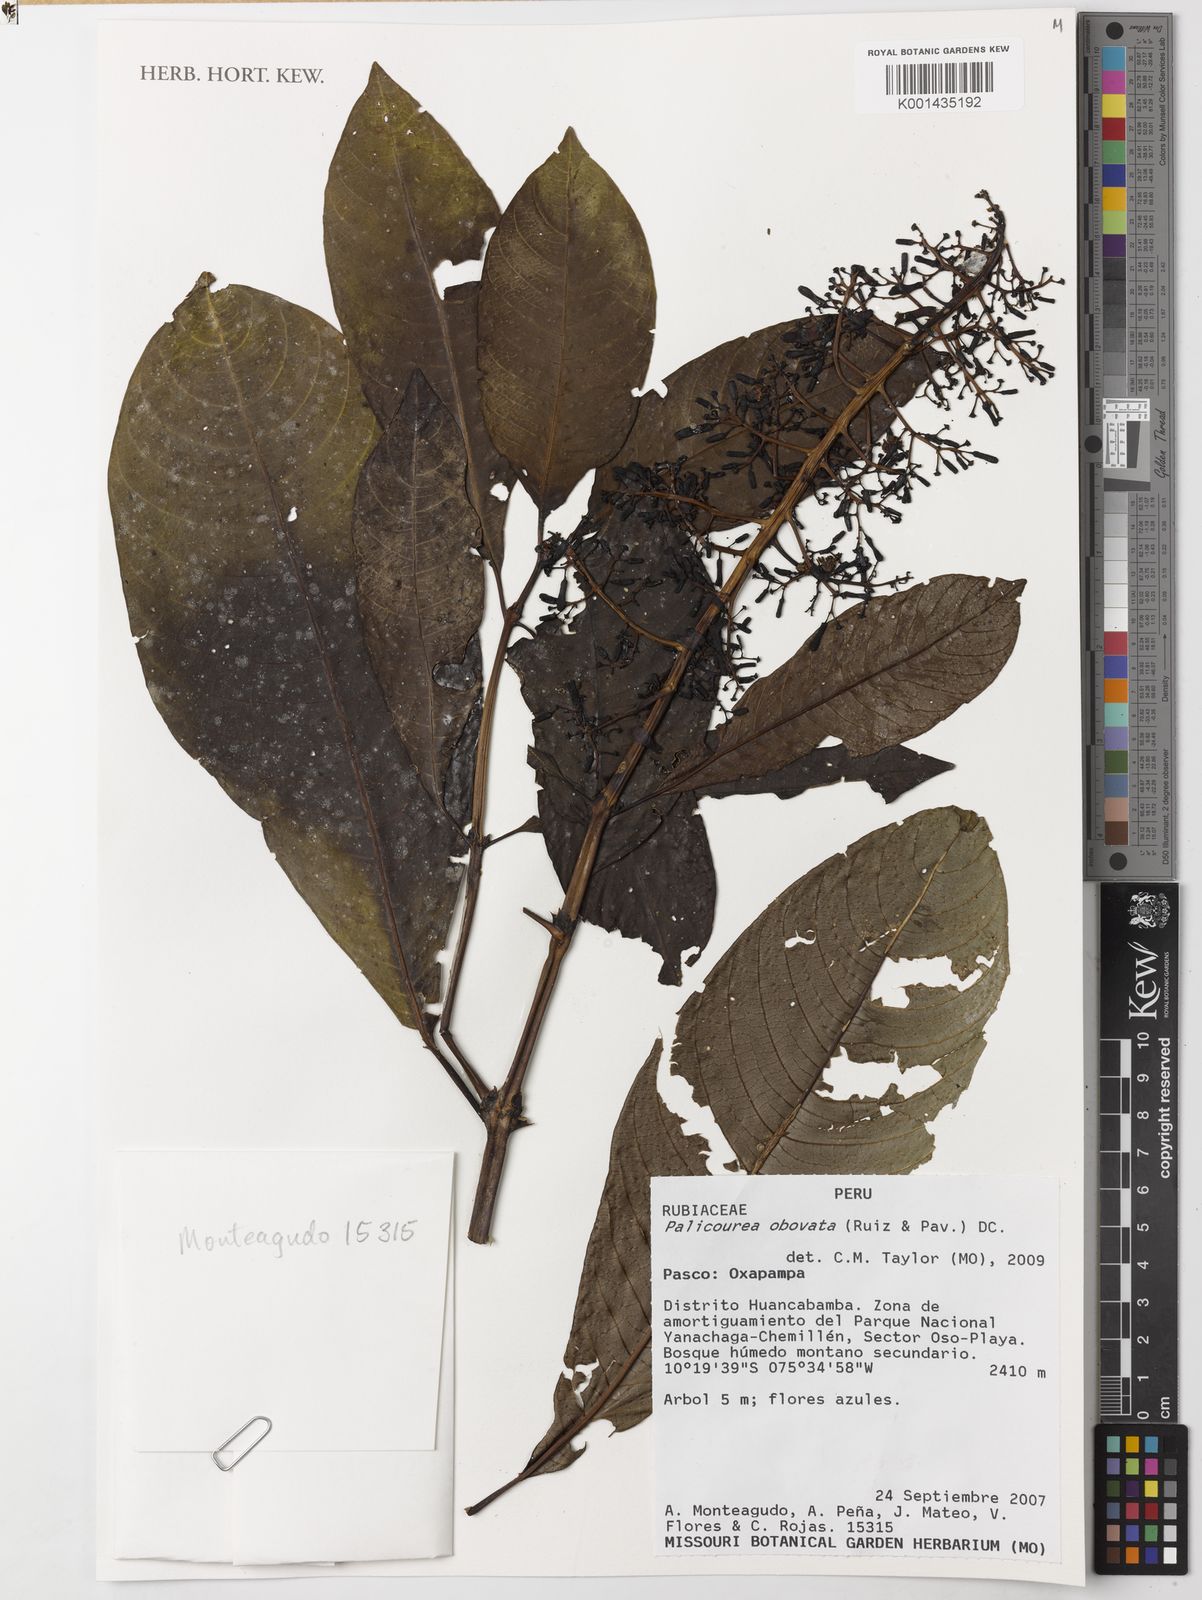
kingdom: Plantae
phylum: Tracheophyta
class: Magnoliopsida
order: Gentianales
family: Rubiaceae
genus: Palicourea
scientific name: Palicourea obovata
